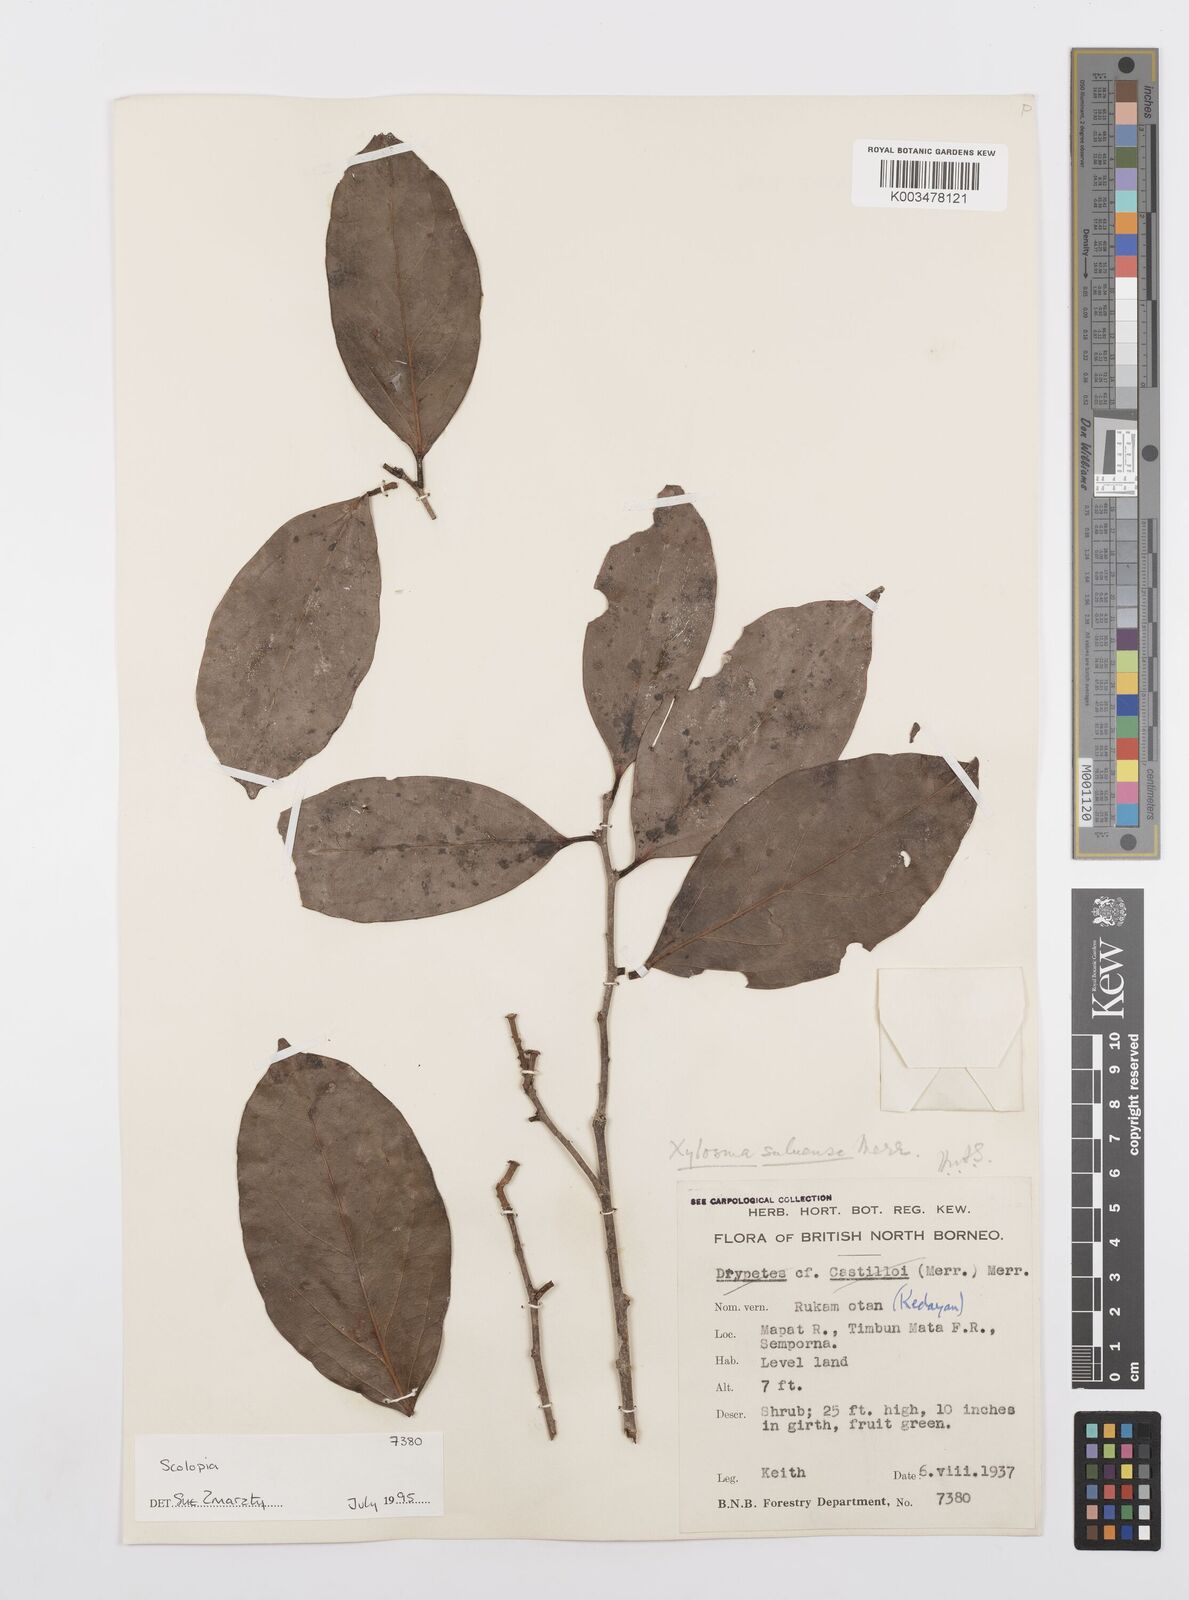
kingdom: Plantae
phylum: Tracheophyta
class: Magnoliopsida
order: Malpighiales
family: Salicaceae
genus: Scolopia
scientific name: Scolopia
